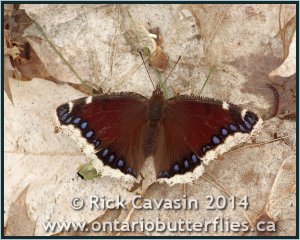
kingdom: Animalia
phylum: Arthropoda
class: Insecta
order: Lepidoptera
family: Nymphalidae
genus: Nymphalis
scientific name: Nymphalis antiopa
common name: Mourning Cloak
